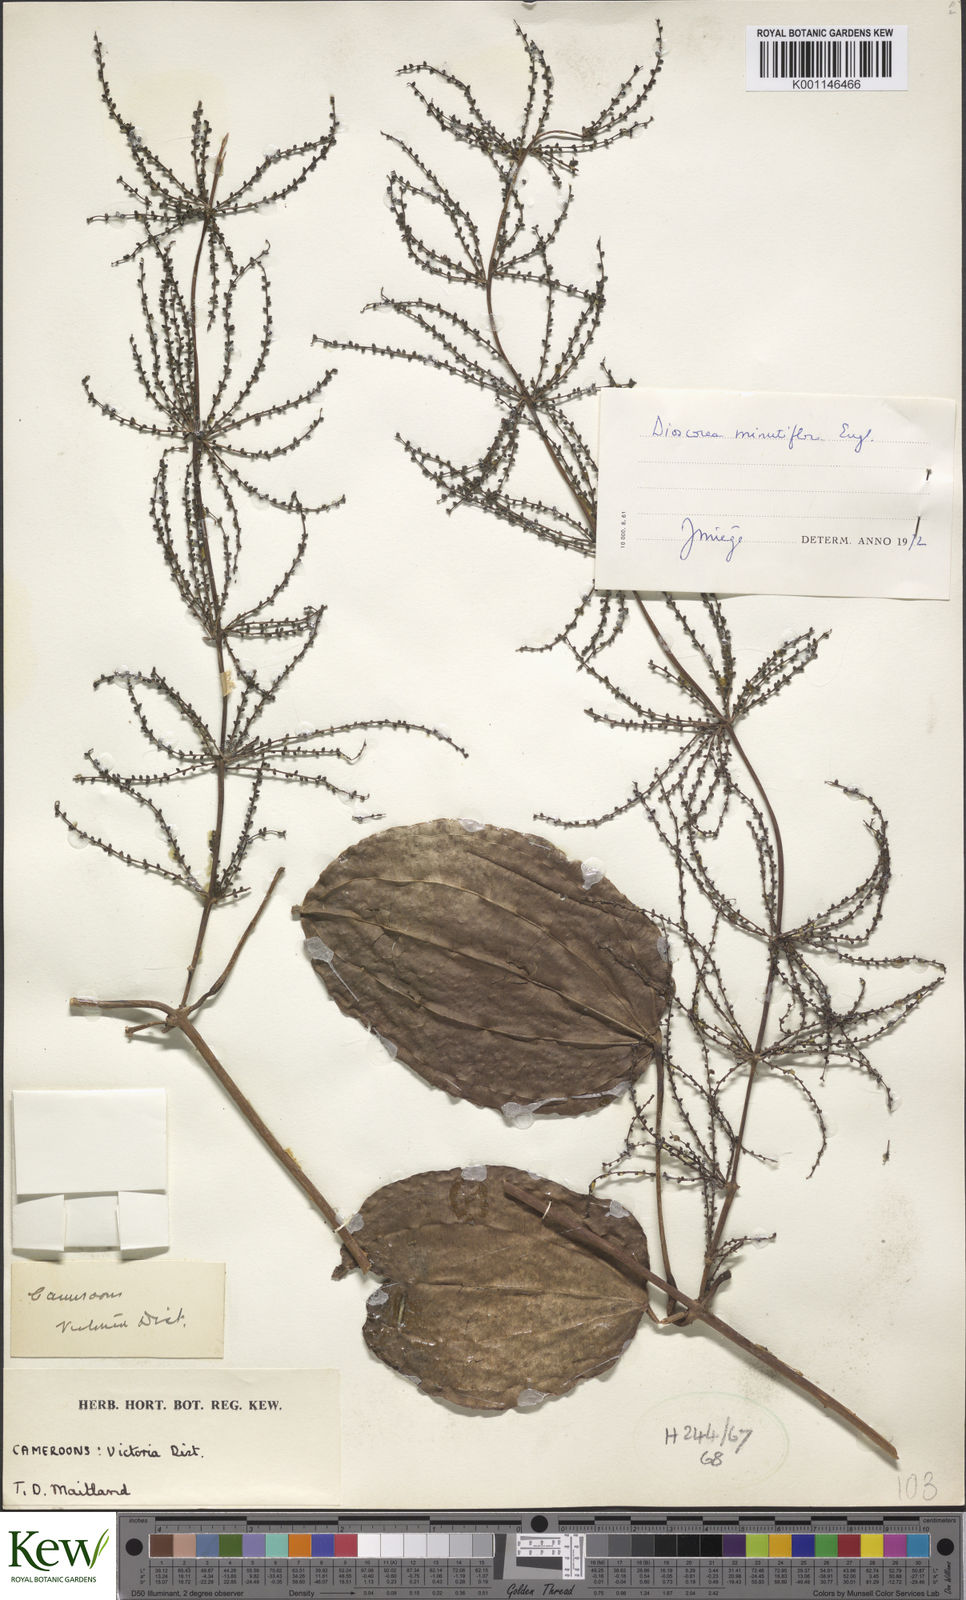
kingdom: Plantae
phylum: Tracheophyta
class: Liliopsida
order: Dioscoreales
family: Dioscoreaceae
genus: Dioscorea
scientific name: Dioscorea minutiflora
